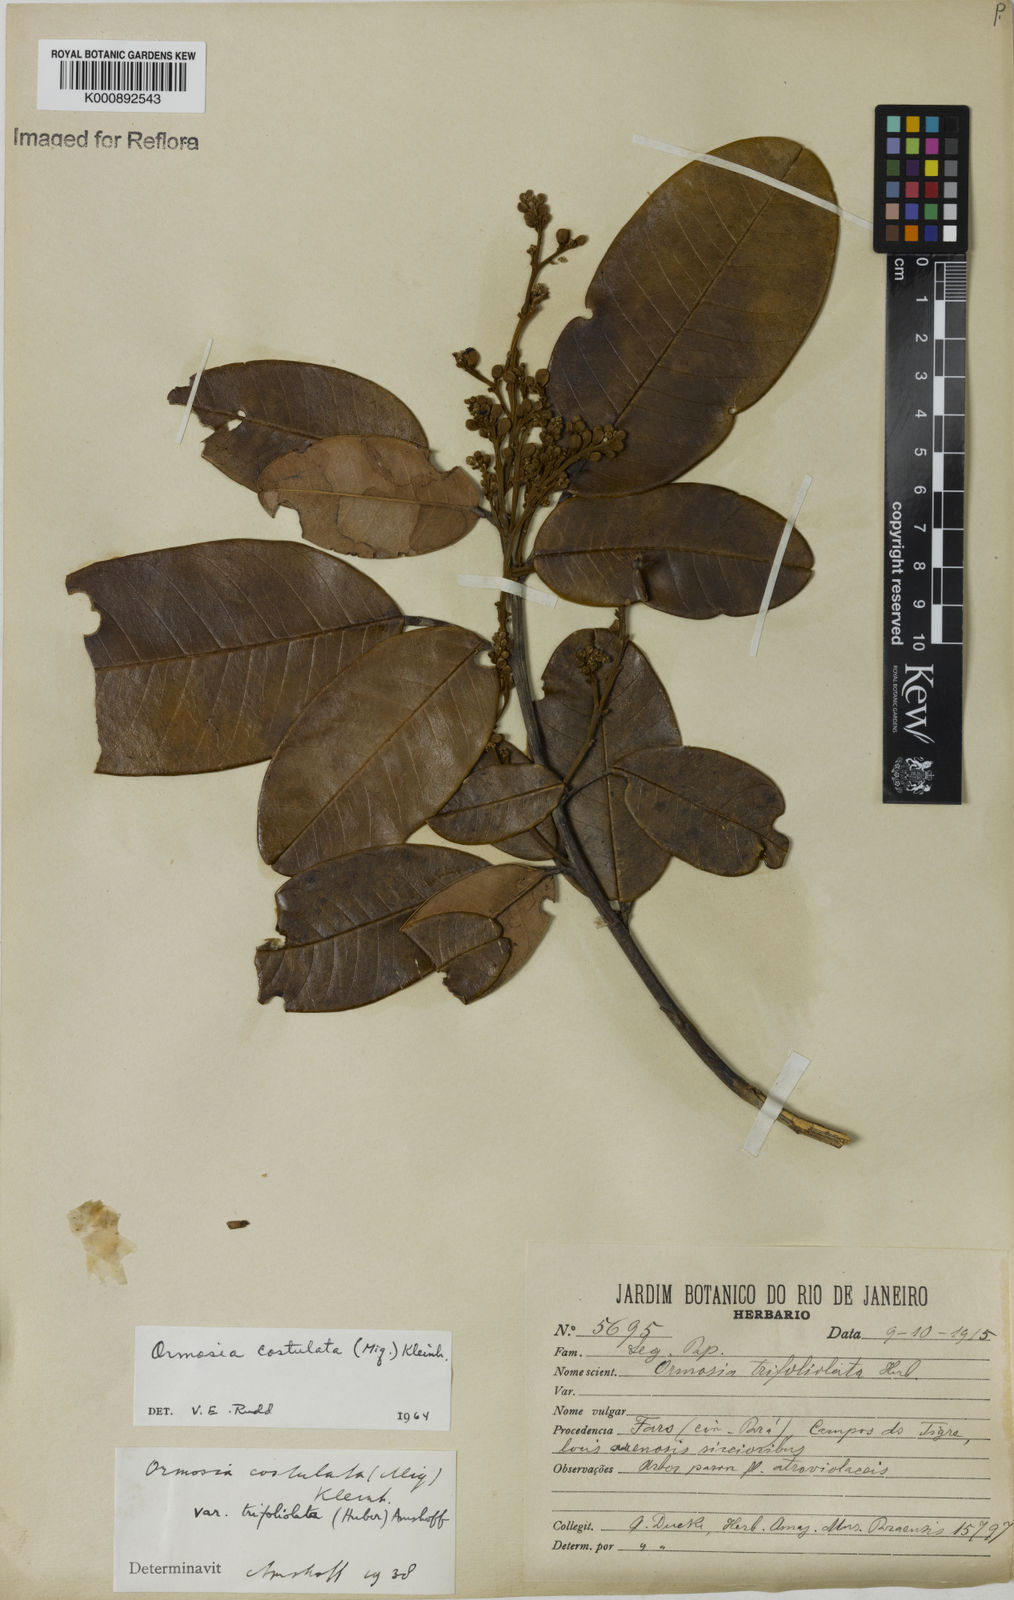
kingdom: Plantae
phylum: Tracheophyta
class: Magnoliopsida
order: Fabales
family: Fabaceae
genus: Ormosia
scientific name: Ormosia costulata
